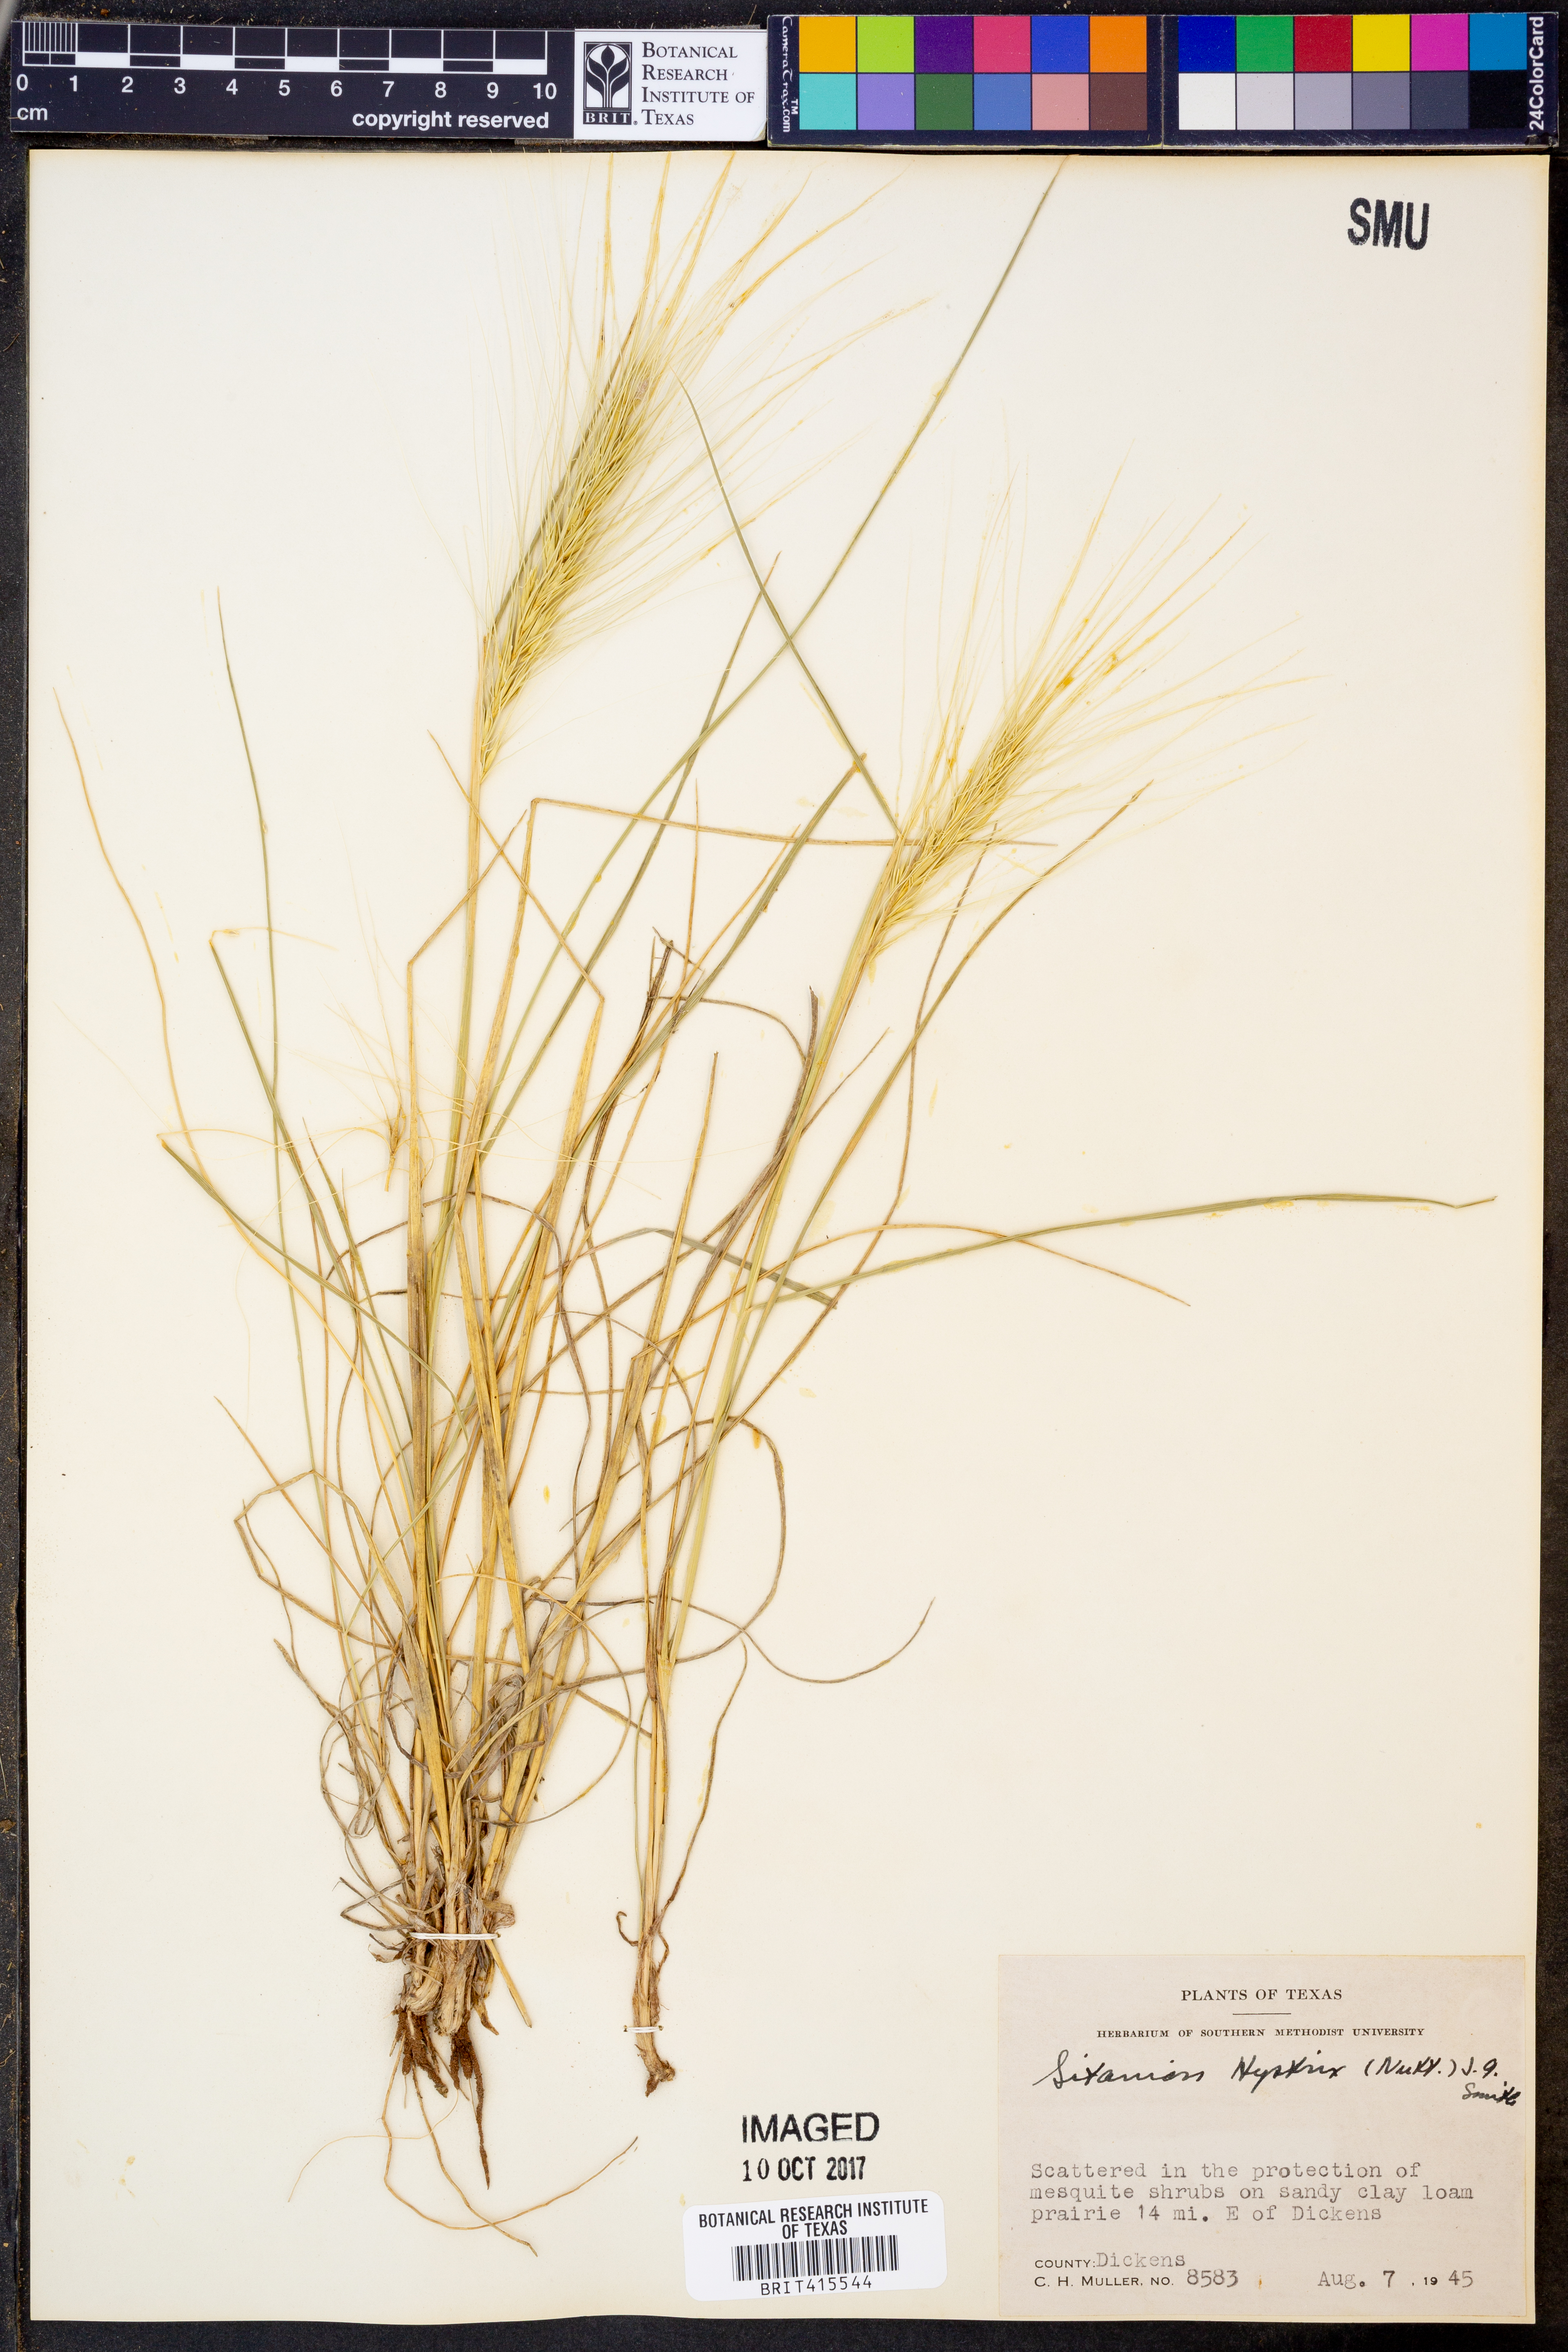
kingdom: Plantae
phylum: Tracheophyta
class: Liliopsida
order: Poales
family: Poaceae
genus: Elymus
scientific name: Elymus elymoides
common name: Bottlebrush squirreltail
